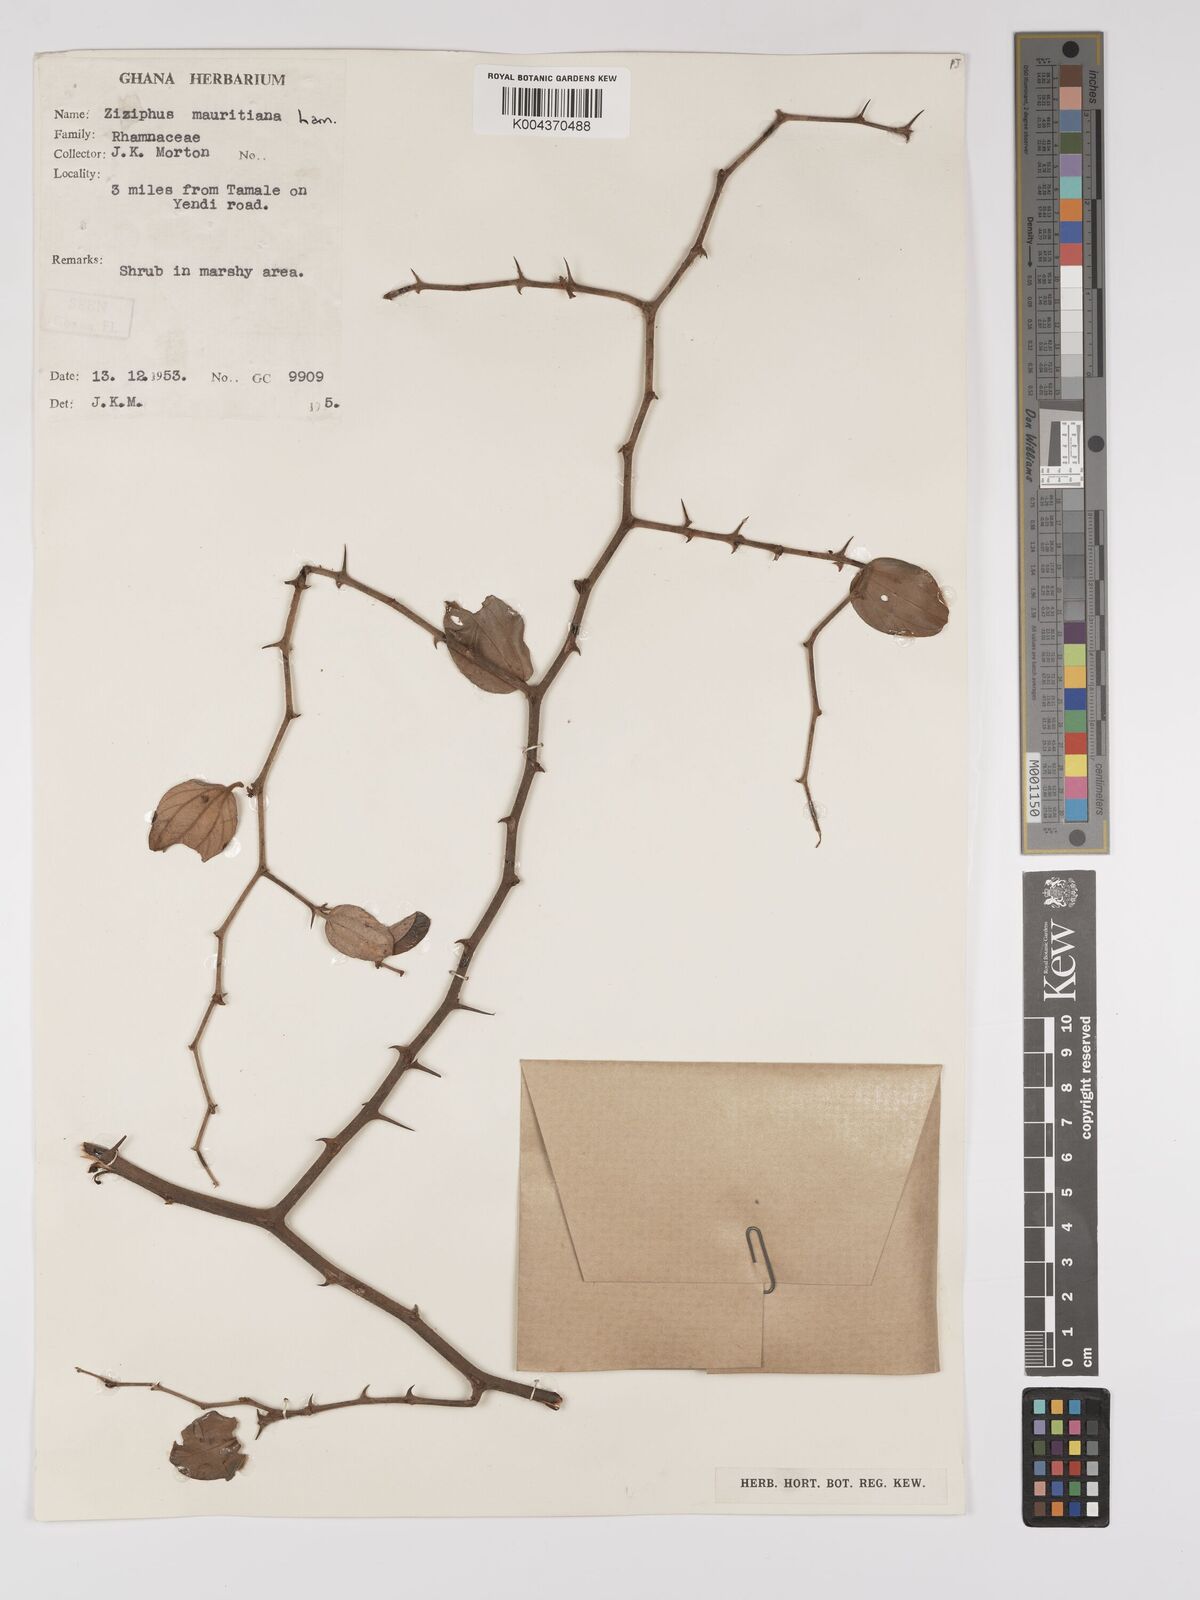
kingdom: Plantae
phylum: Tracheophyta
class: Magnoliopsida
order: Rosales
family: Rhamnaceae
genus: Ziziphus
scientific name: Ziziphus mauritiana
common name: Indian jujube
